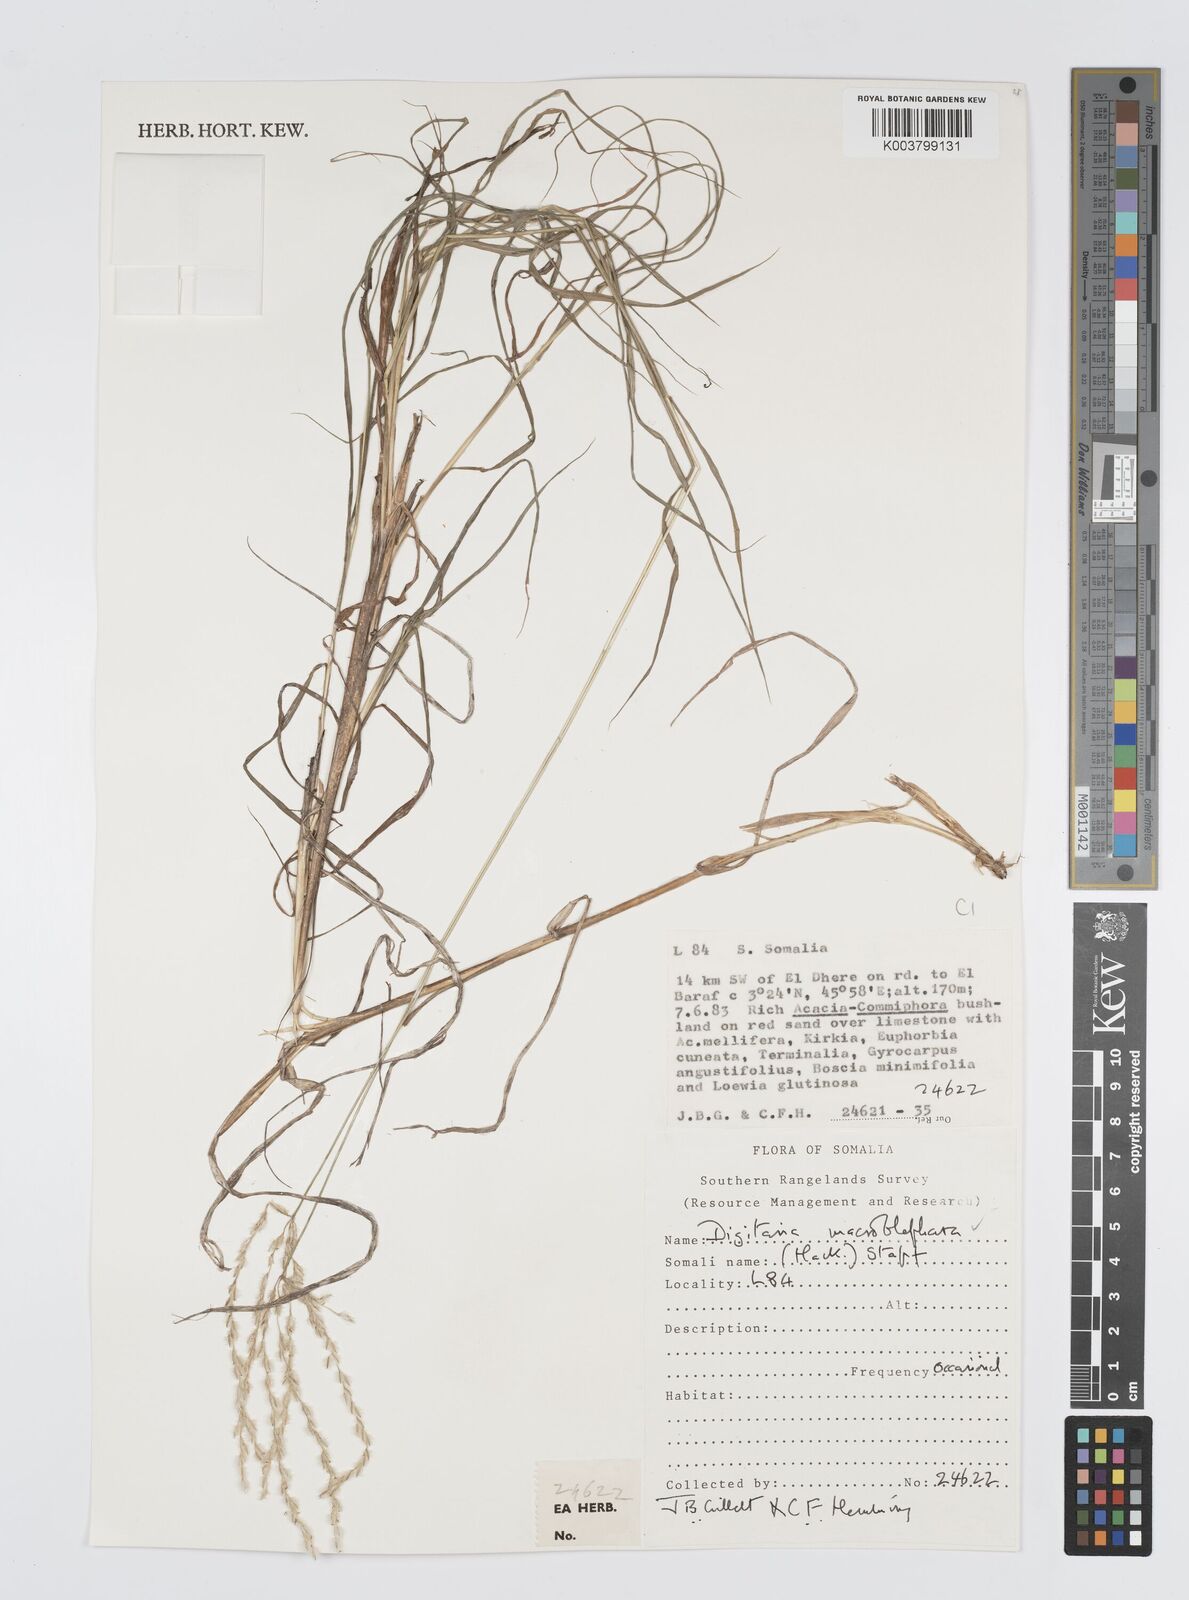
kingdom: Plantae
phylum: Tracheophyta
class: Liliopsida
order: Poales
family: Poaceae
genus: Digitaria
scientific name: Digitaria macroblephara
